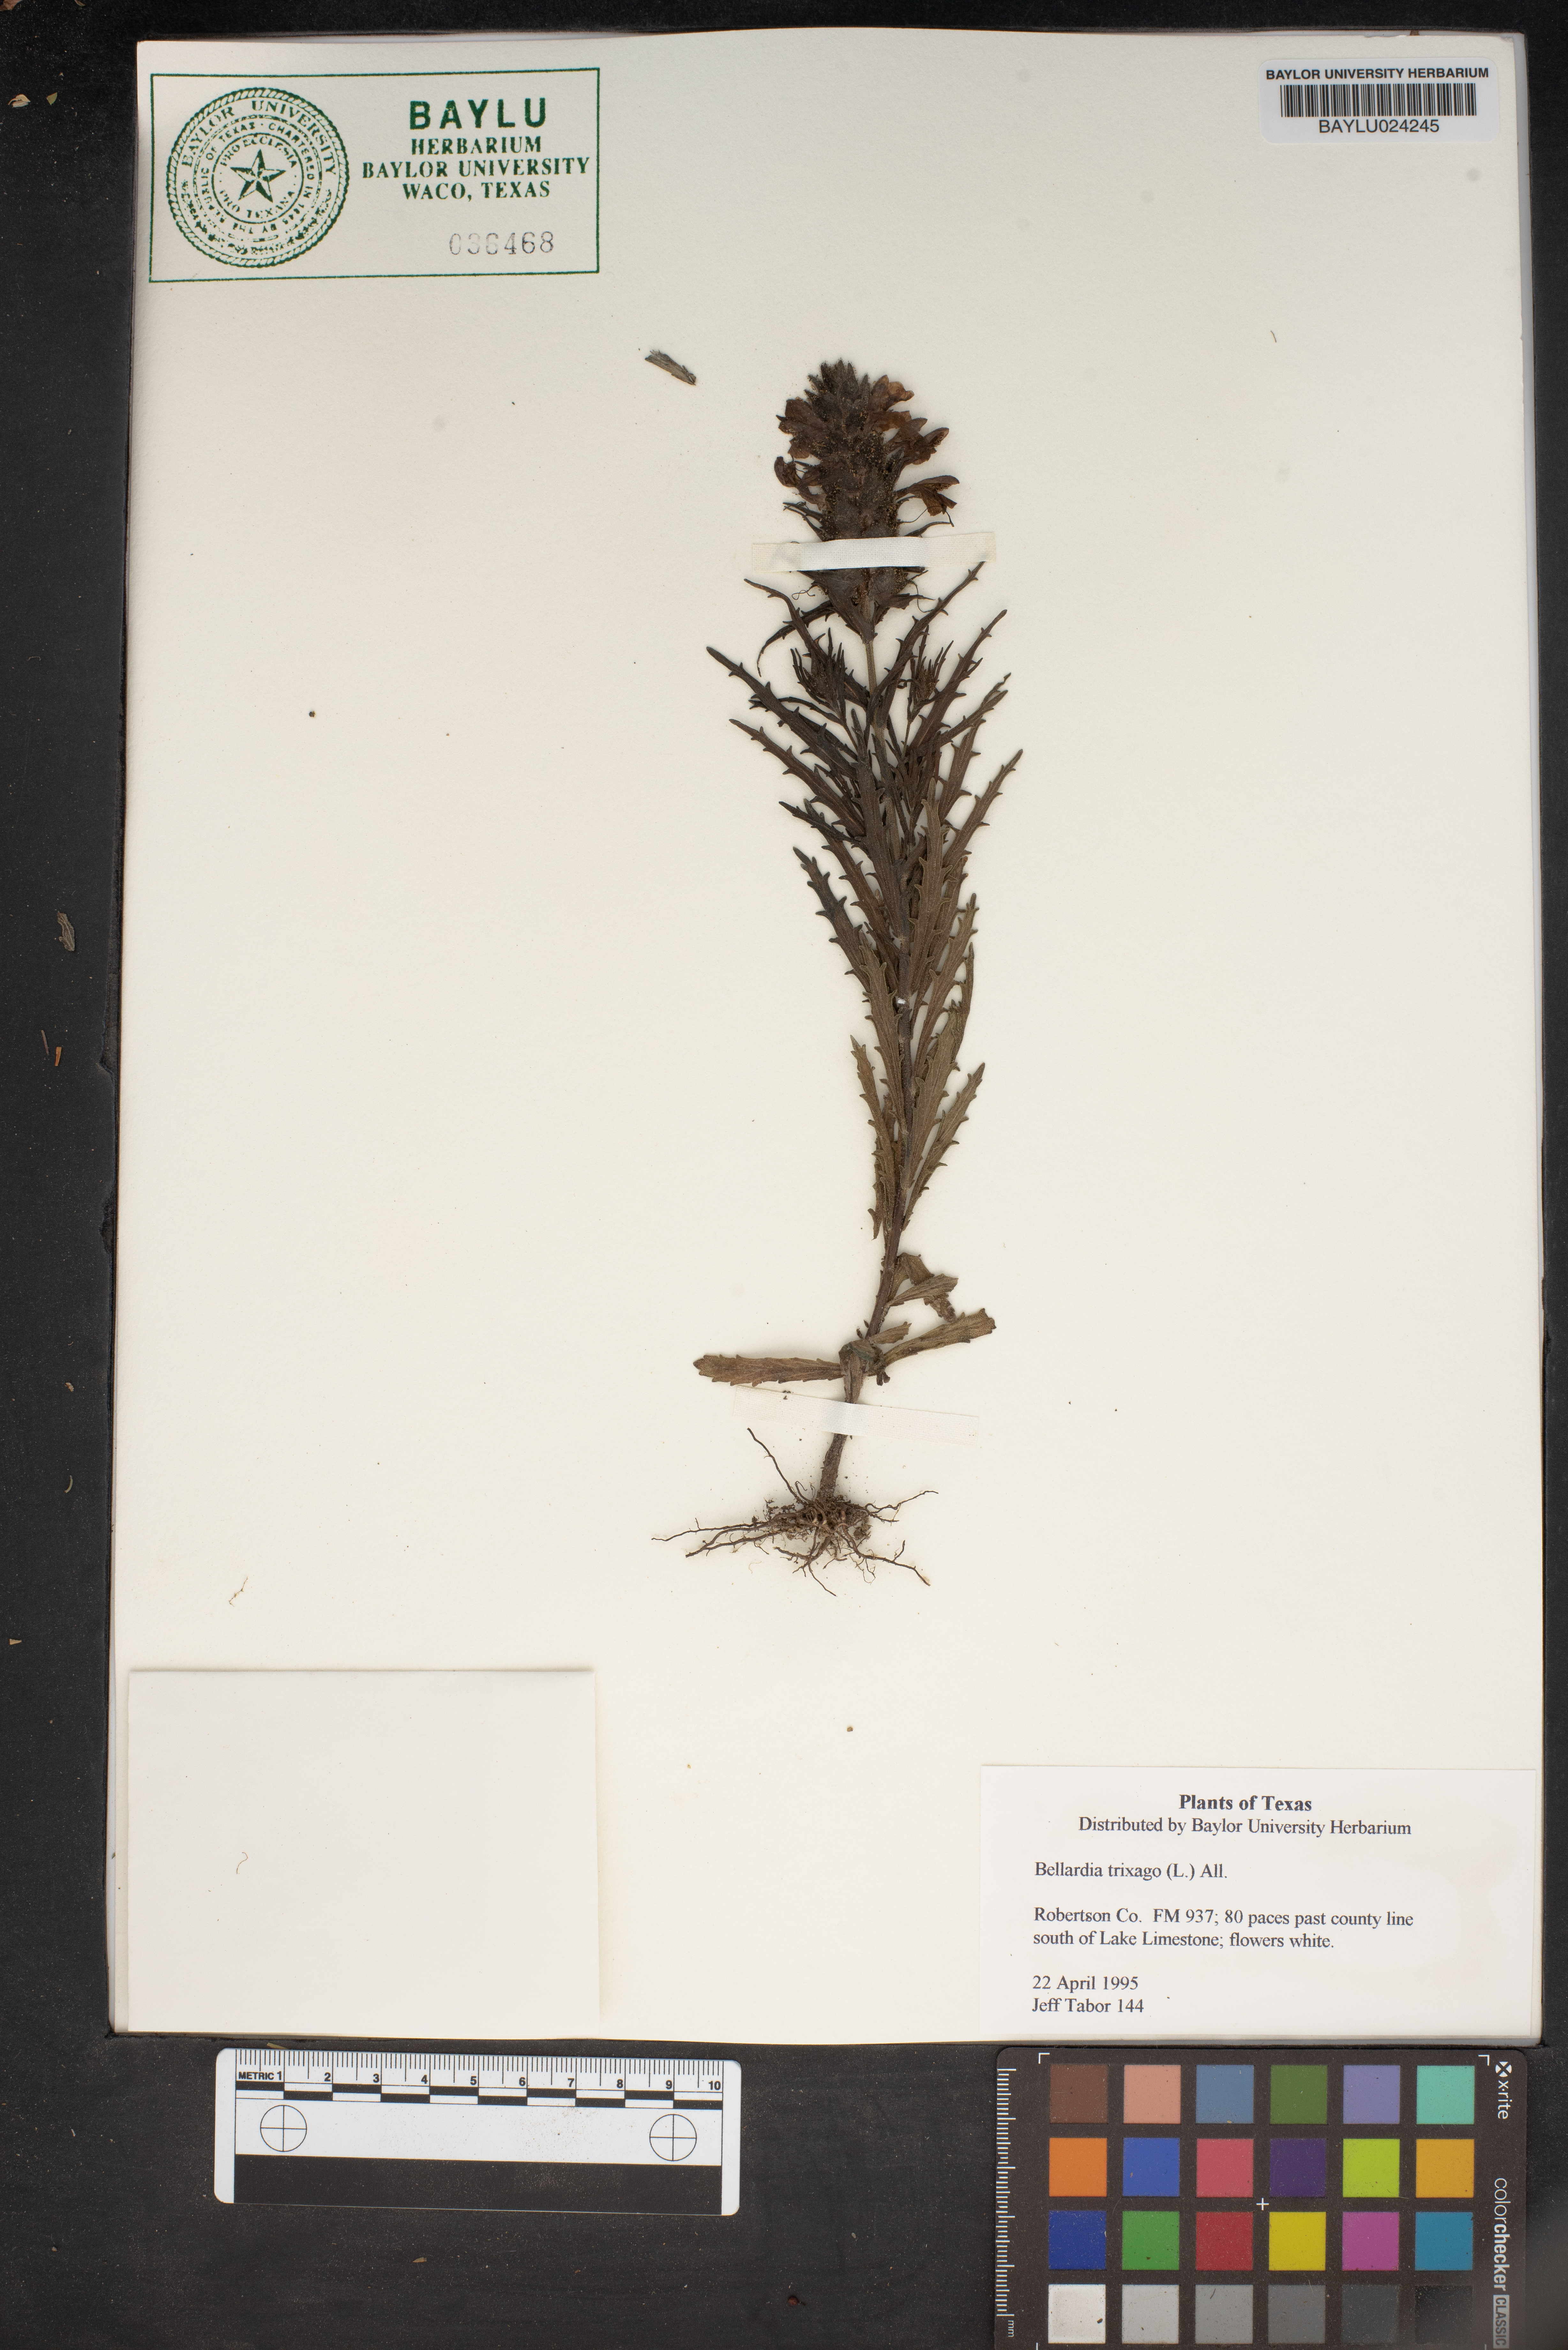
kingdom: Plantae
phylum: Tracheophyta
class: Magnoliopsida
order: Lamiales
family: Orobanchaceae
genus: Bellardia
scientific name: Bellardia trixago
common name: Mediterranean lineseed
